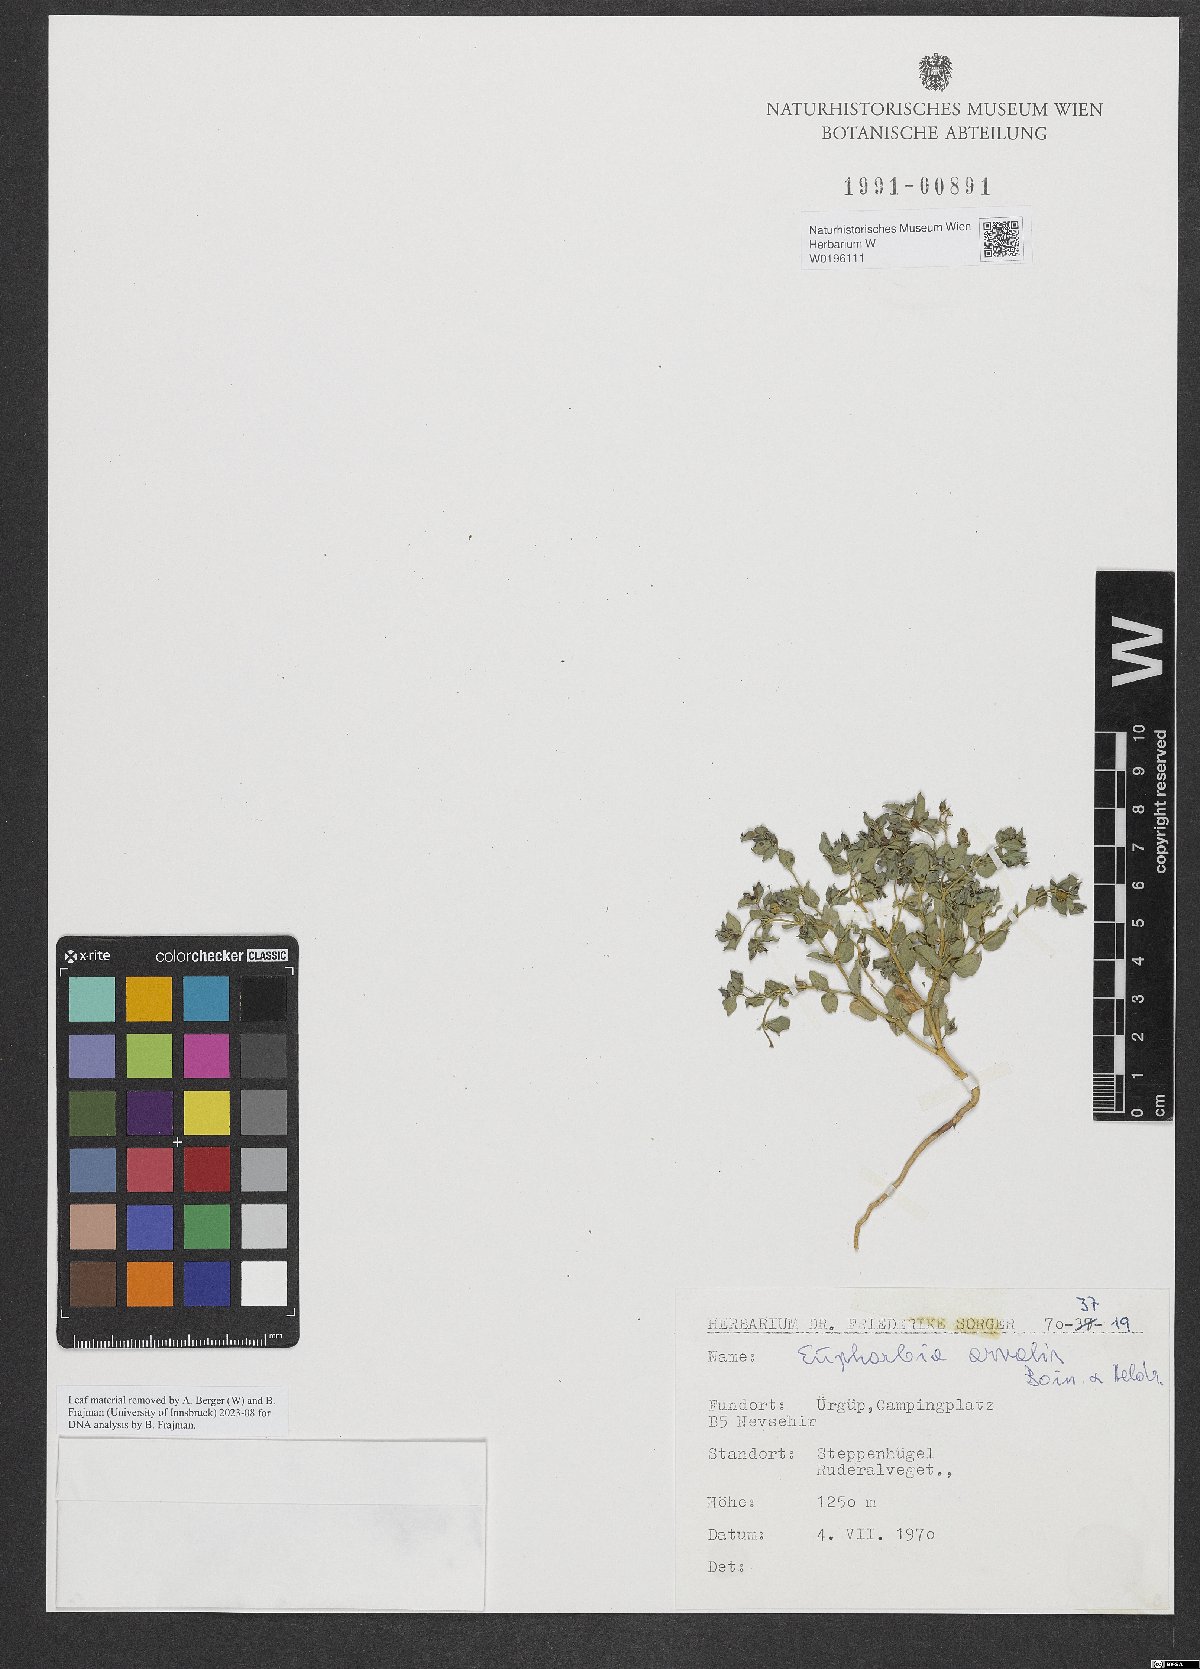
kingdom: Plantae
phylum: Tracheophyta
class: Magnoliopsida
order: Malpighiales
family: Euphorbiaceae
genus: Euphorbia
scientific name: Euphorbia arvalis
